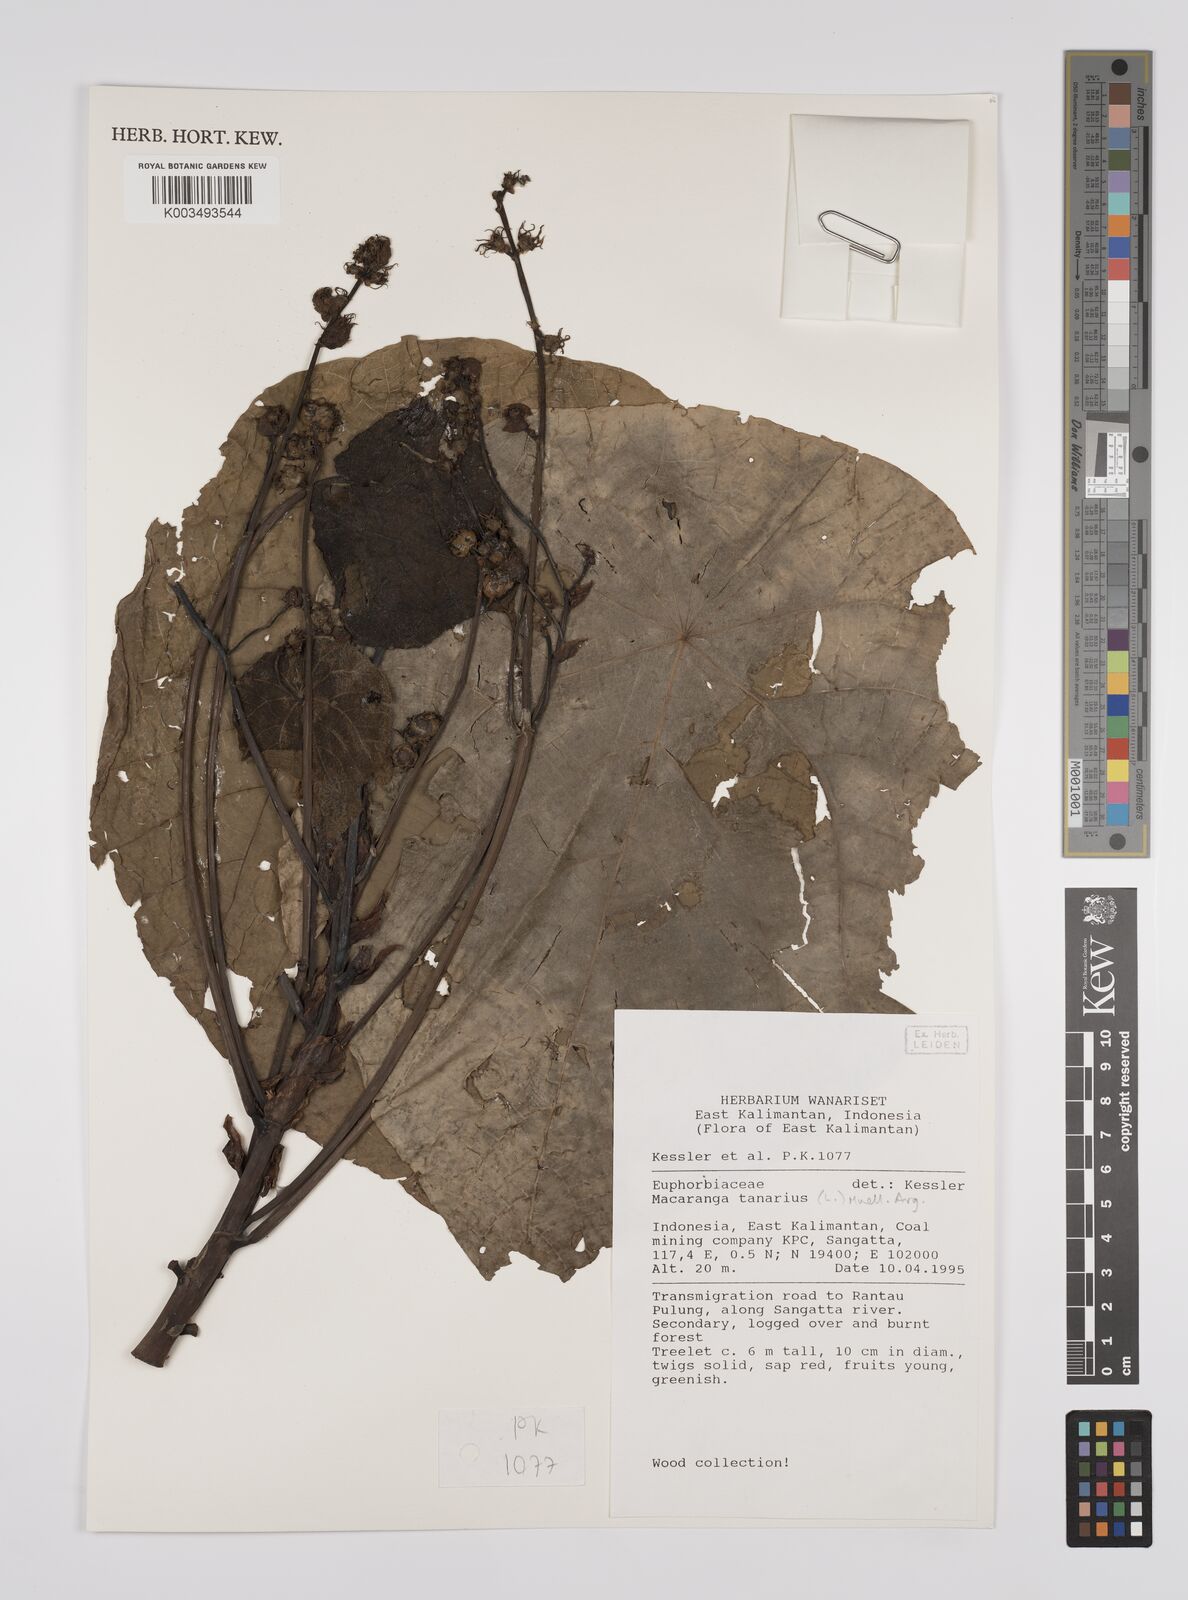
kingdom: Plantae
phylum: Tracheophyta
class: Magnoliopsida
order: Malpighiales
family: Euphorbiaceae
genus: Macaranga
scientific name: Macaranga tanarius
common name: Parasol leaf tree
